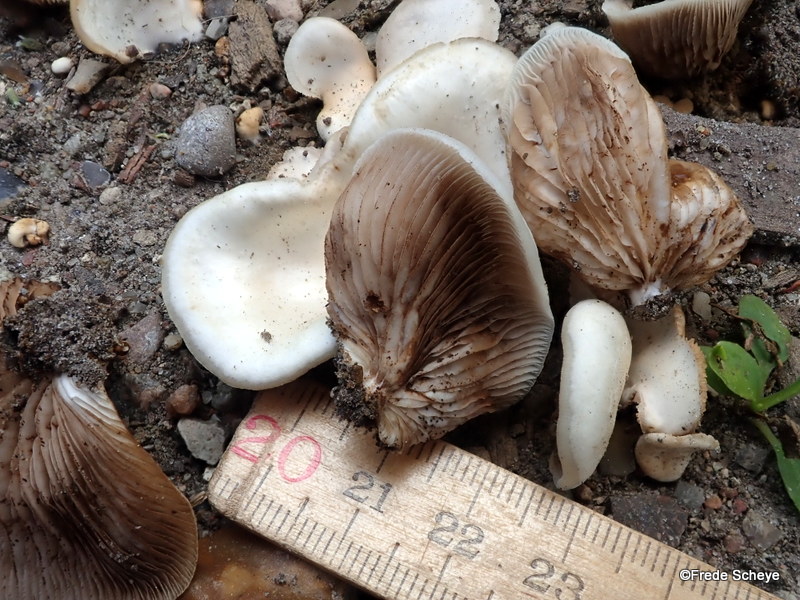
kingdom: Fungi
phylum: Basidiomycota
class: Agaricomycetes
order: Agaricales
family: Crepidotaceae
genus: Crepidotus
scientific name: Crepidotus mollis
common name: blød muslingesvamp
